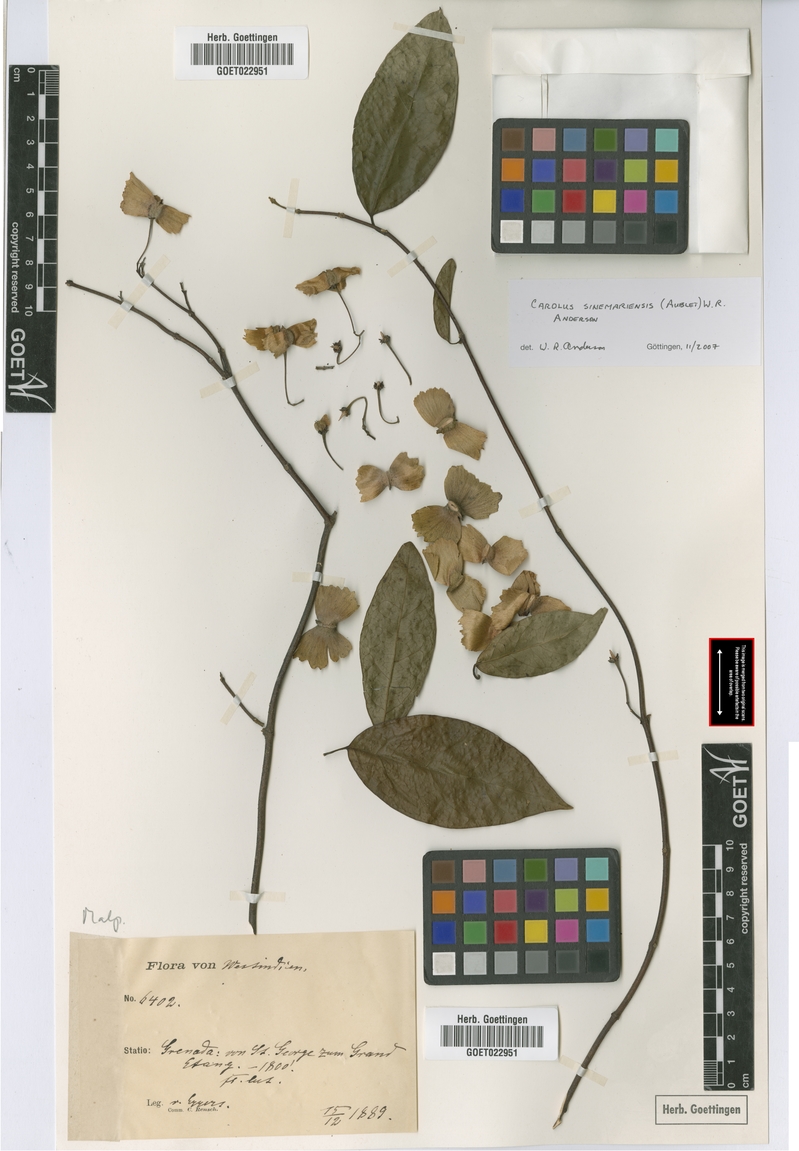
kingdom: Plantae
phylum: Tracheophyta
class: Magnoliopsida
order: Malpighiales
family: Malpighiaceae
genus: Carolus
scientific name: Carolus sinemariensis
